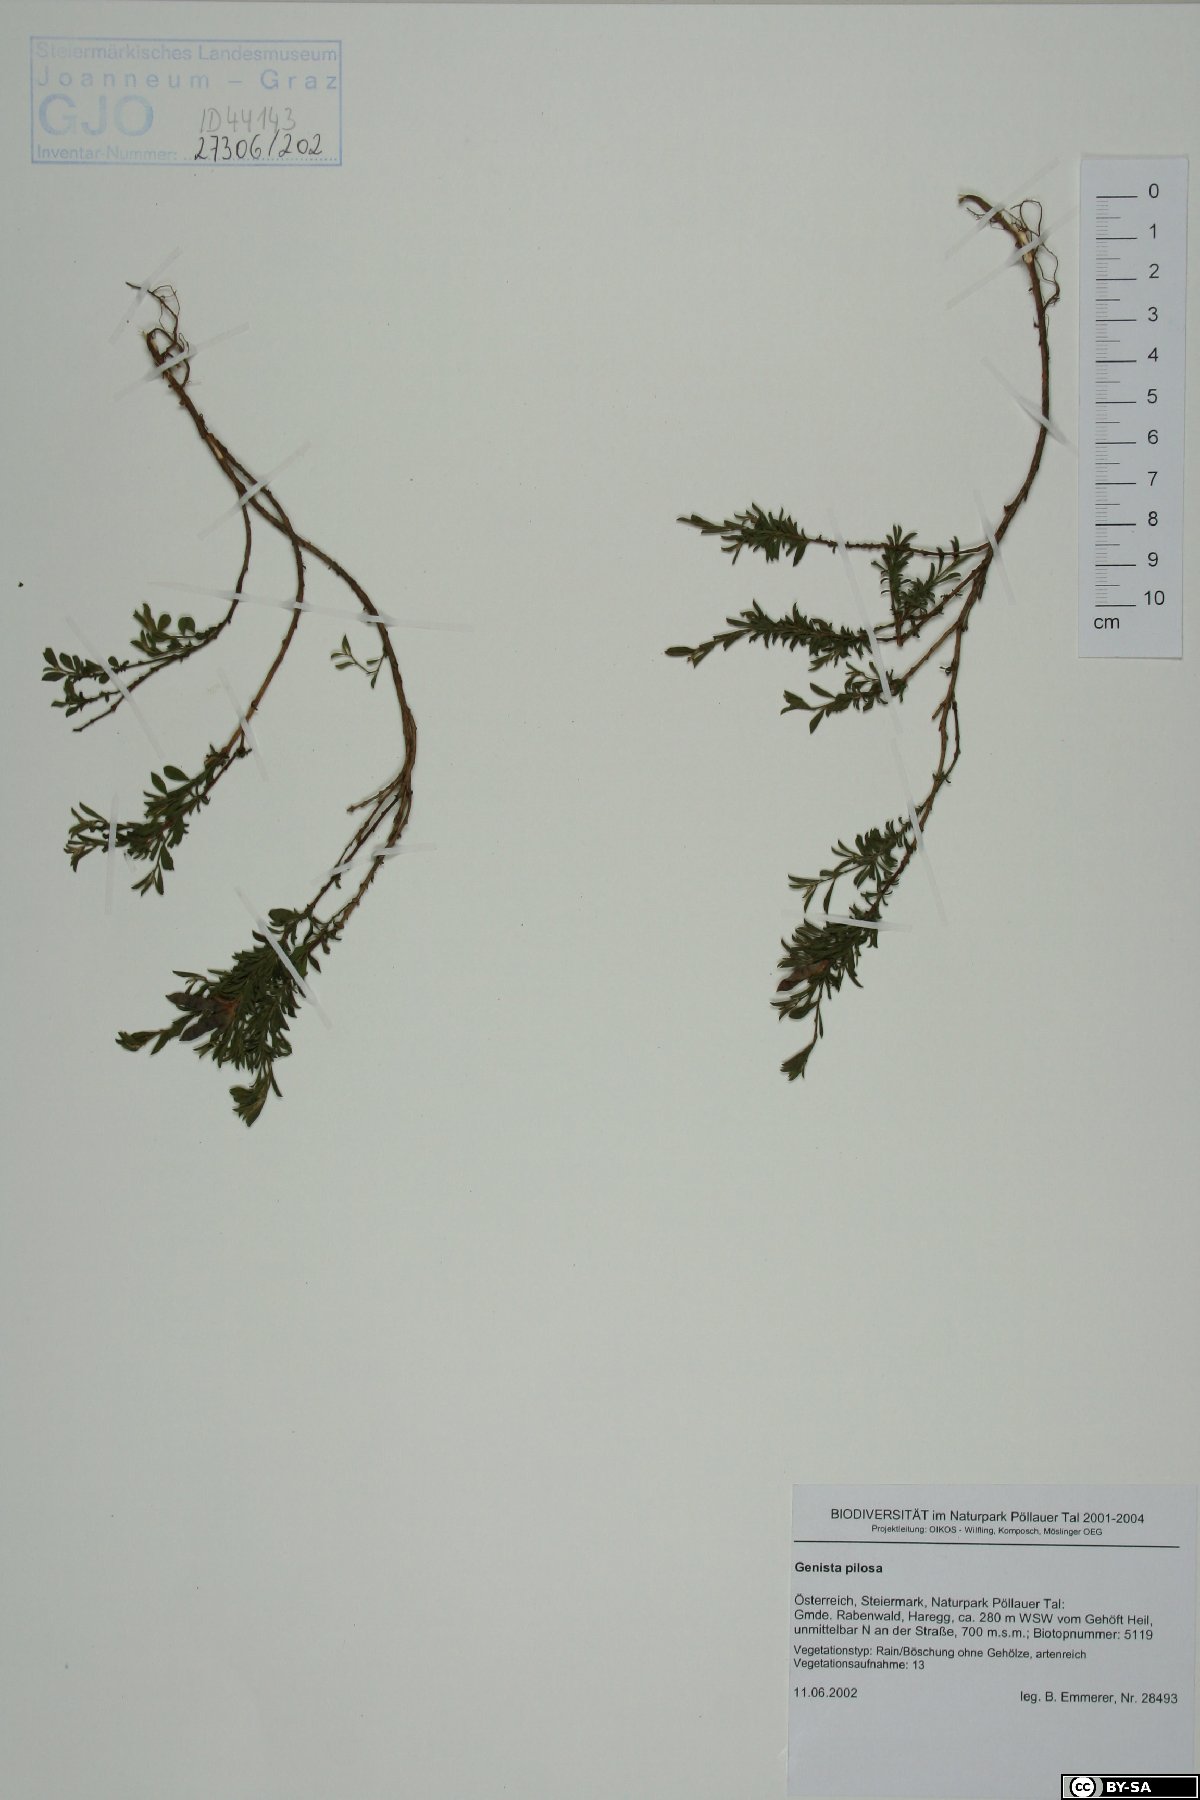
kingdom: Plantae
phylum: Tracheophyta
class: Magnoliopsida
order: Fabales
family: Fabaceae
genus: Genista
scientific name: Genista pilosa
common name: Hairy greenweed
